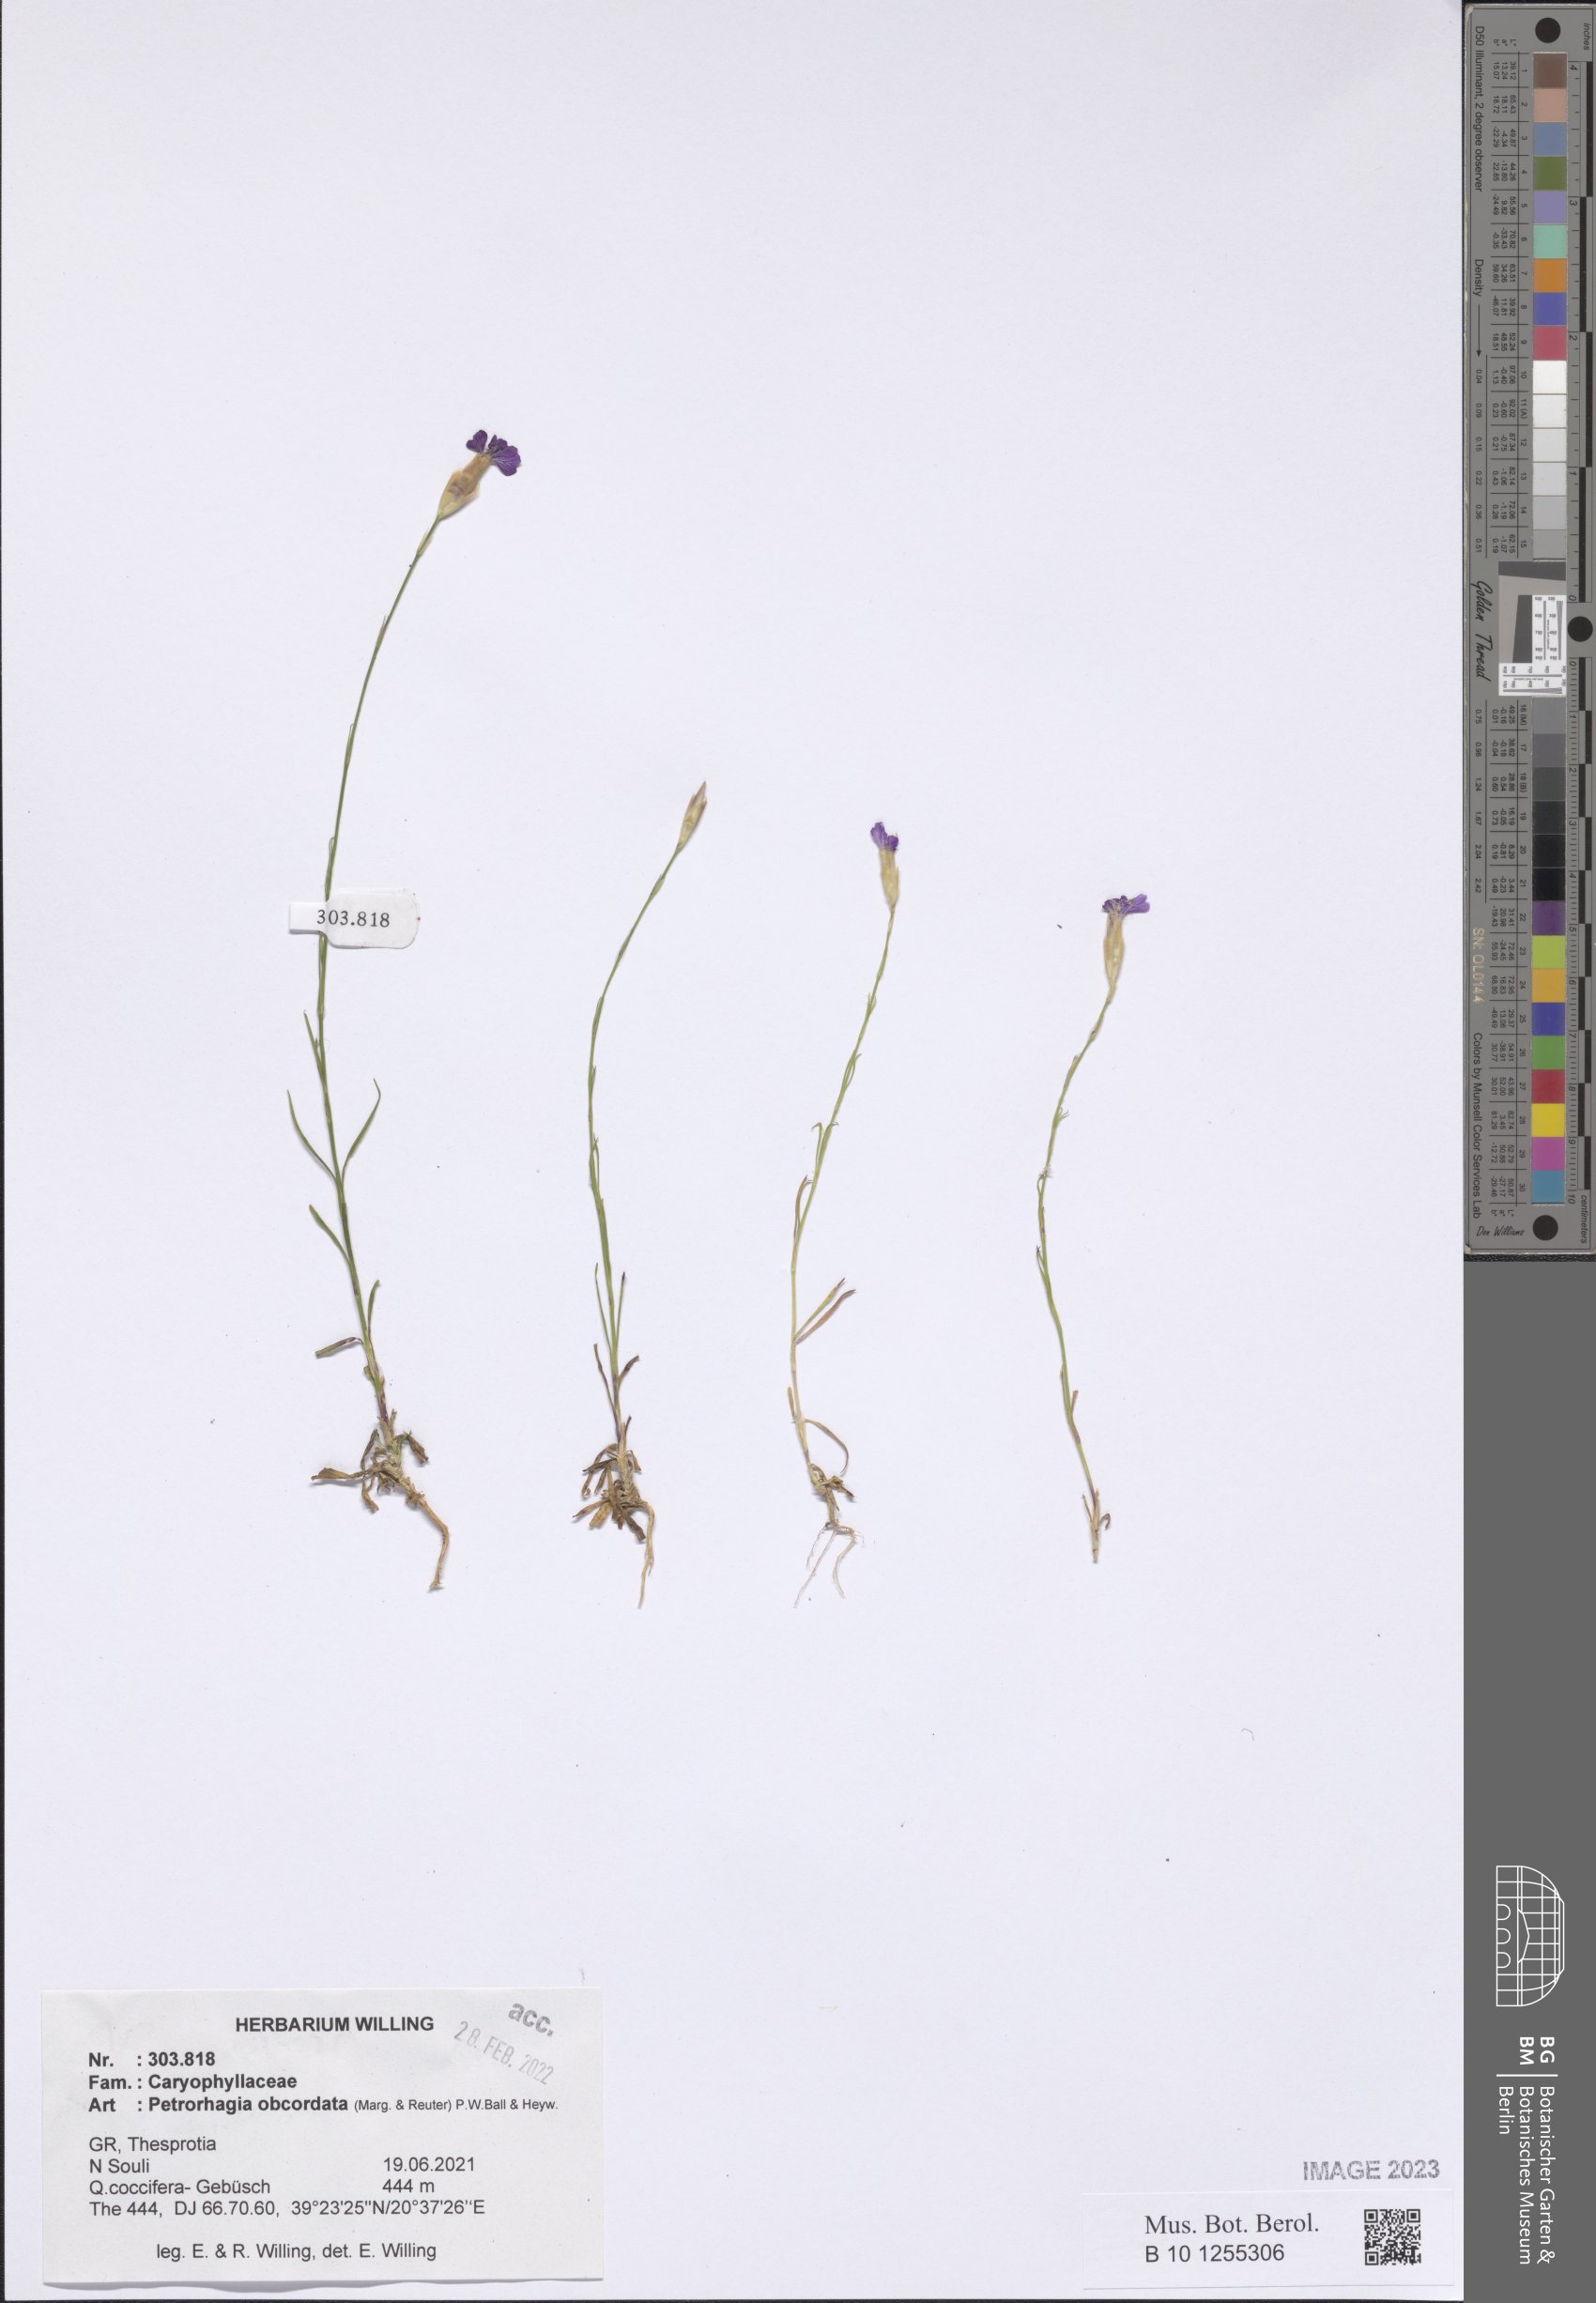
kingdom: Plantae
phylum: Tracheophyta
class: Magnoliopsida
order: Caryophyllales
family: Caryophyllaceae
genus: Petrorhagia
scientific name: Petrorhagia obcordata
